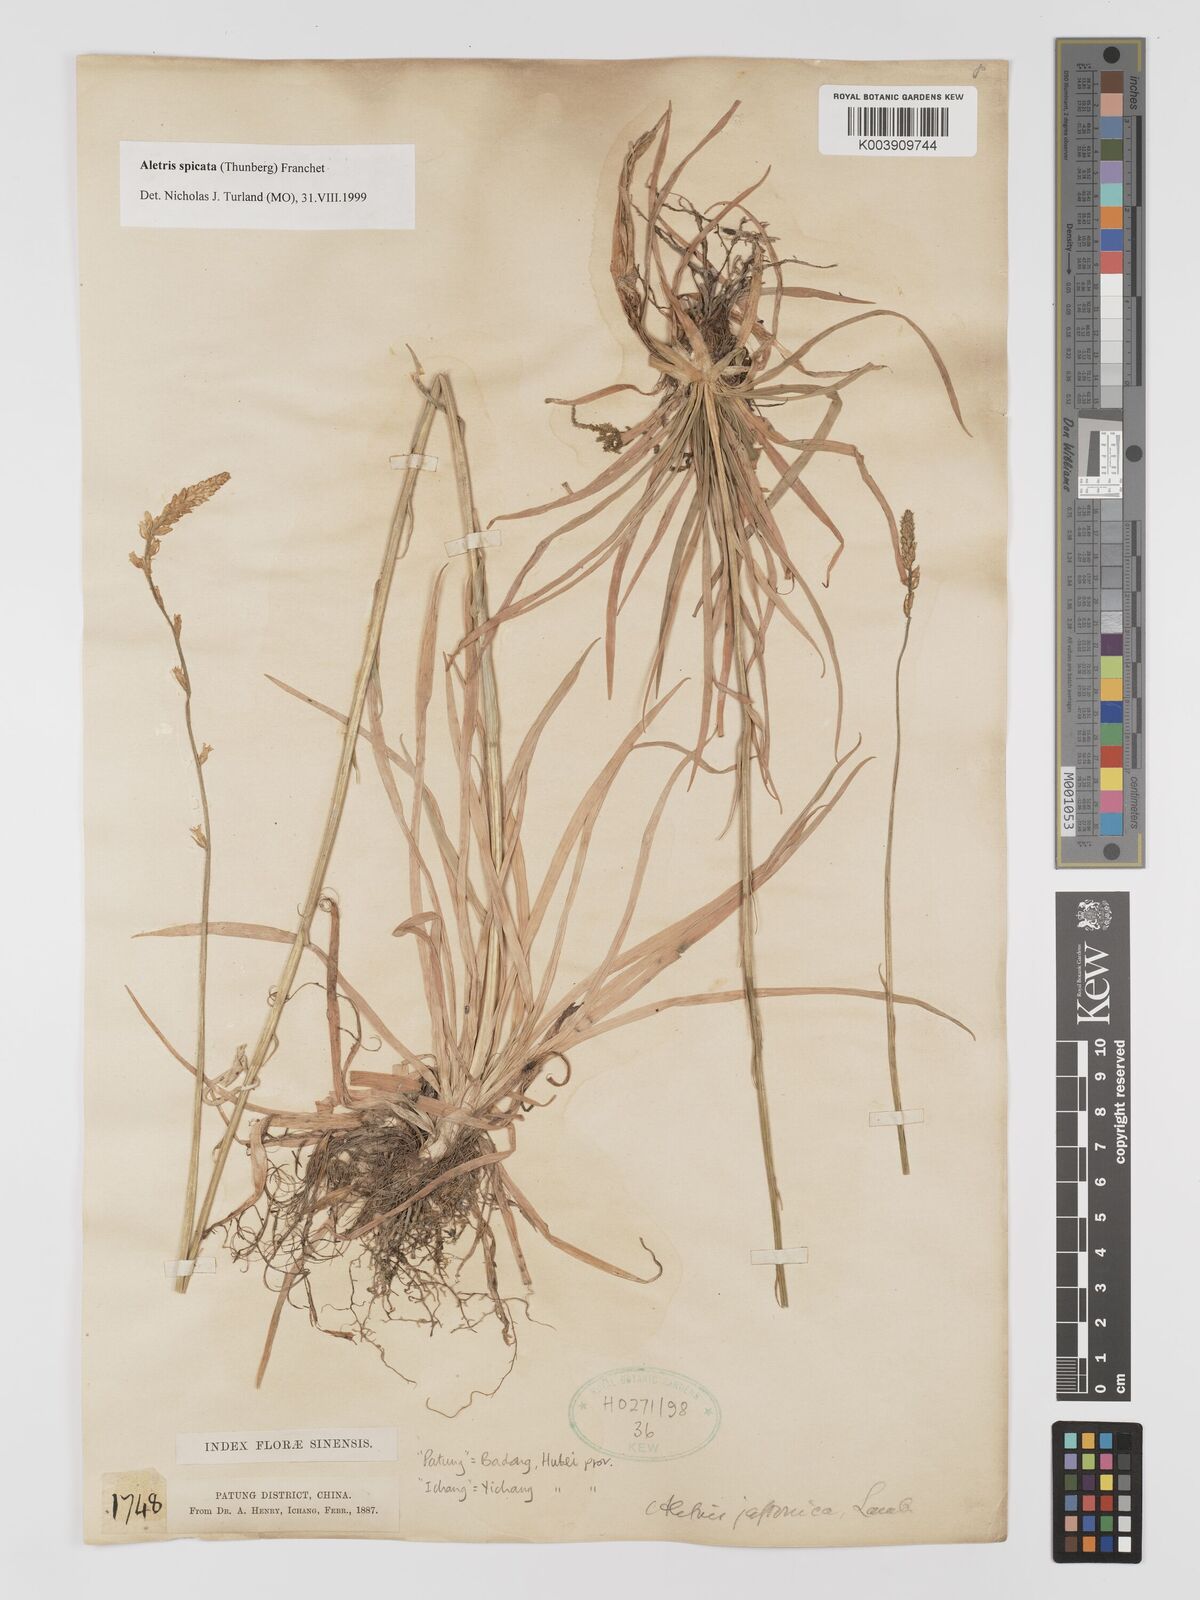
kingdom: Plantae
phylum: Tracheophyta
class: Liliopsida
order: Dioscoreales
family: Nartheciaceae
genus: Aletris
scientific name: Aletris spicata
